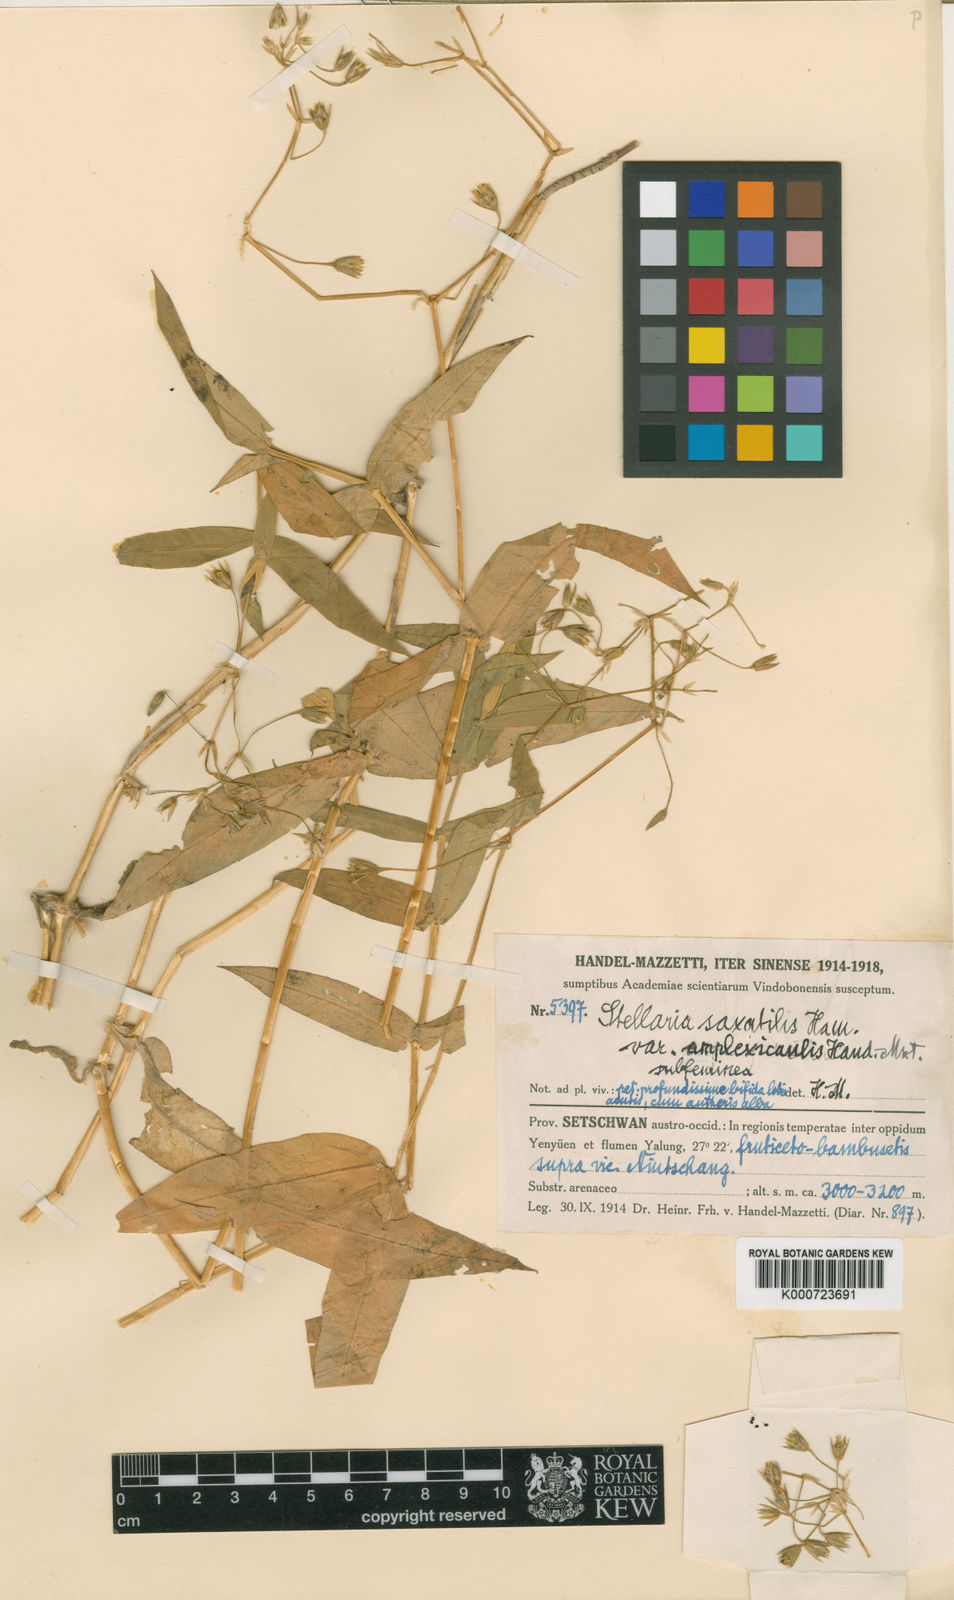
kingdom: Plantae
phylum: Tracheophyta
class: Magnoliopsida
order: Caryophyllales
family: Caryophyllaceae
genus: Stellaria
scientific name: Stellaria vestita
